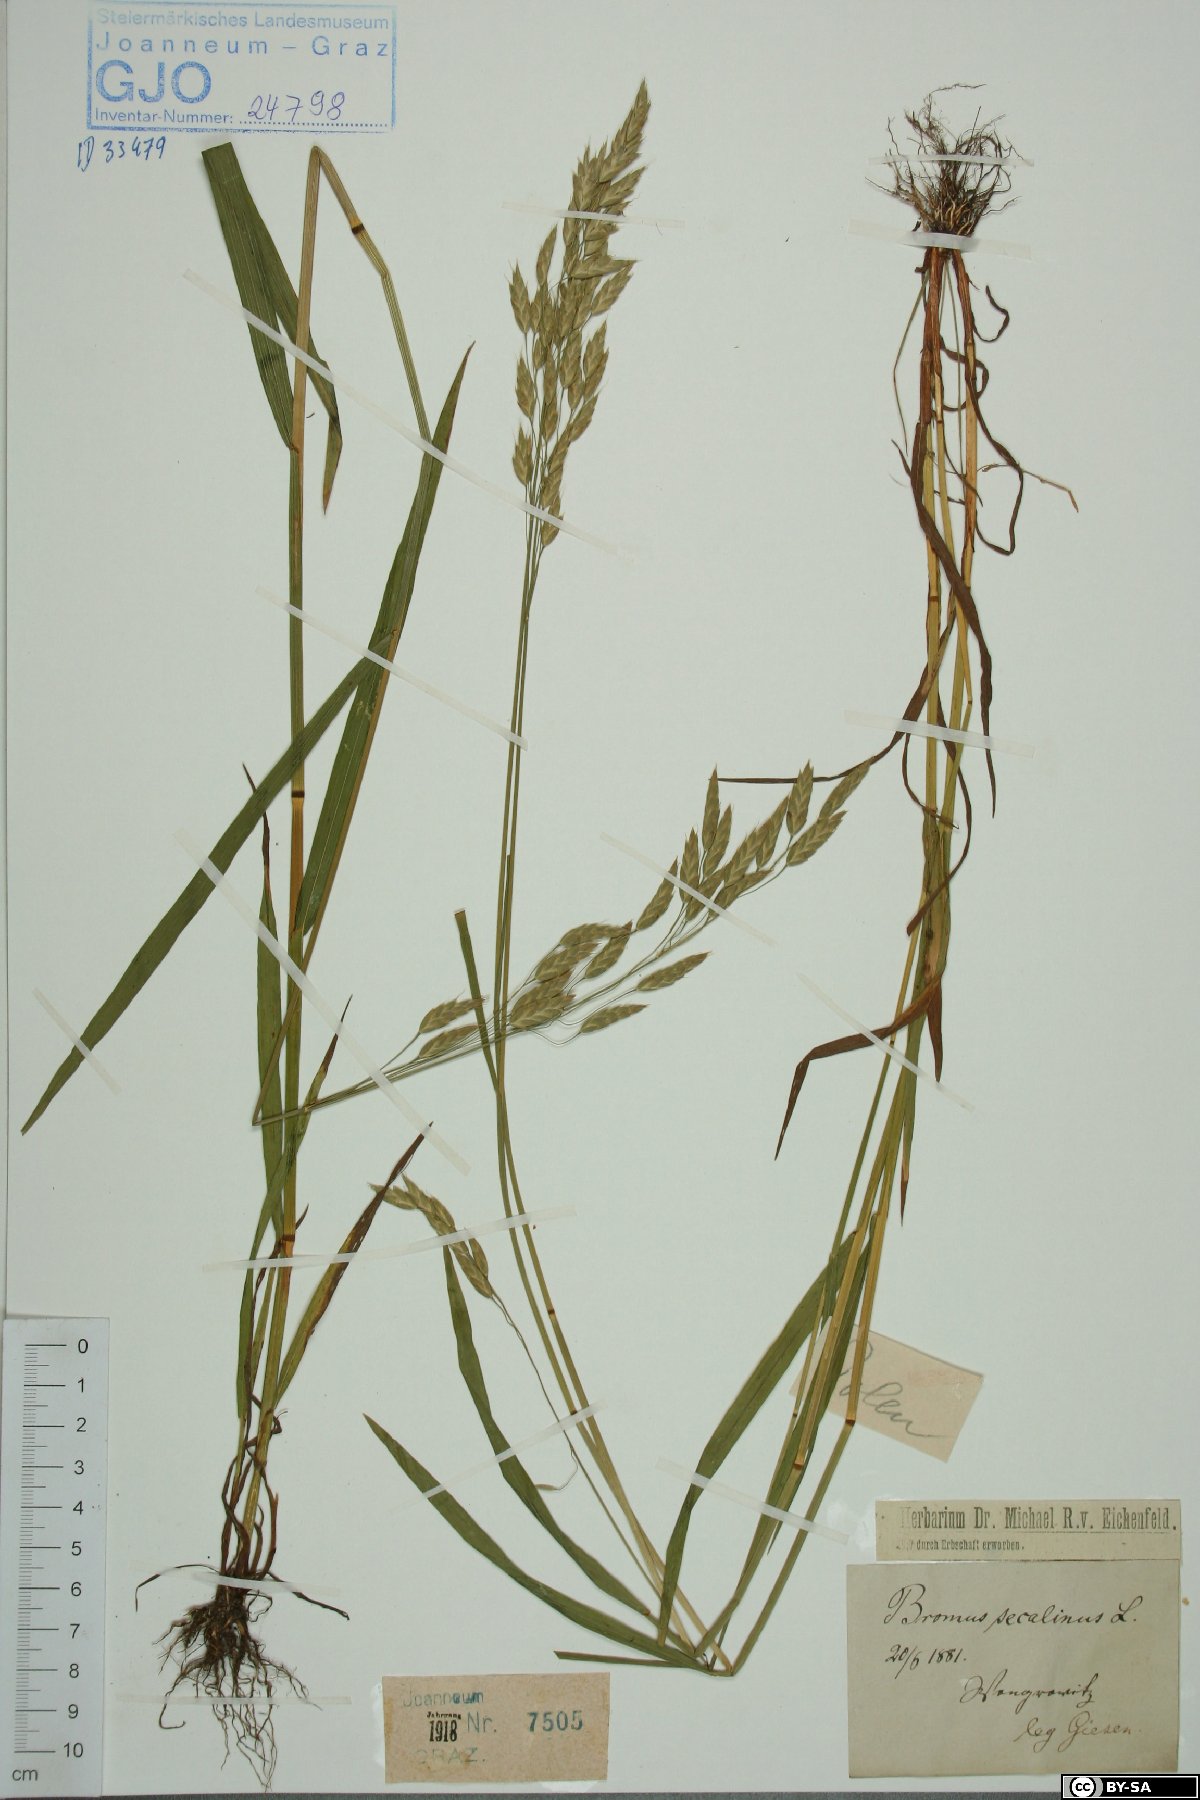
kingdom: Plantae
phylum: Tracheophyta
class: Liliopsida
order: Poales
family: Poaceae
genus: Bromus
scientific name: Bromus secalinus
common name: Rye brome
